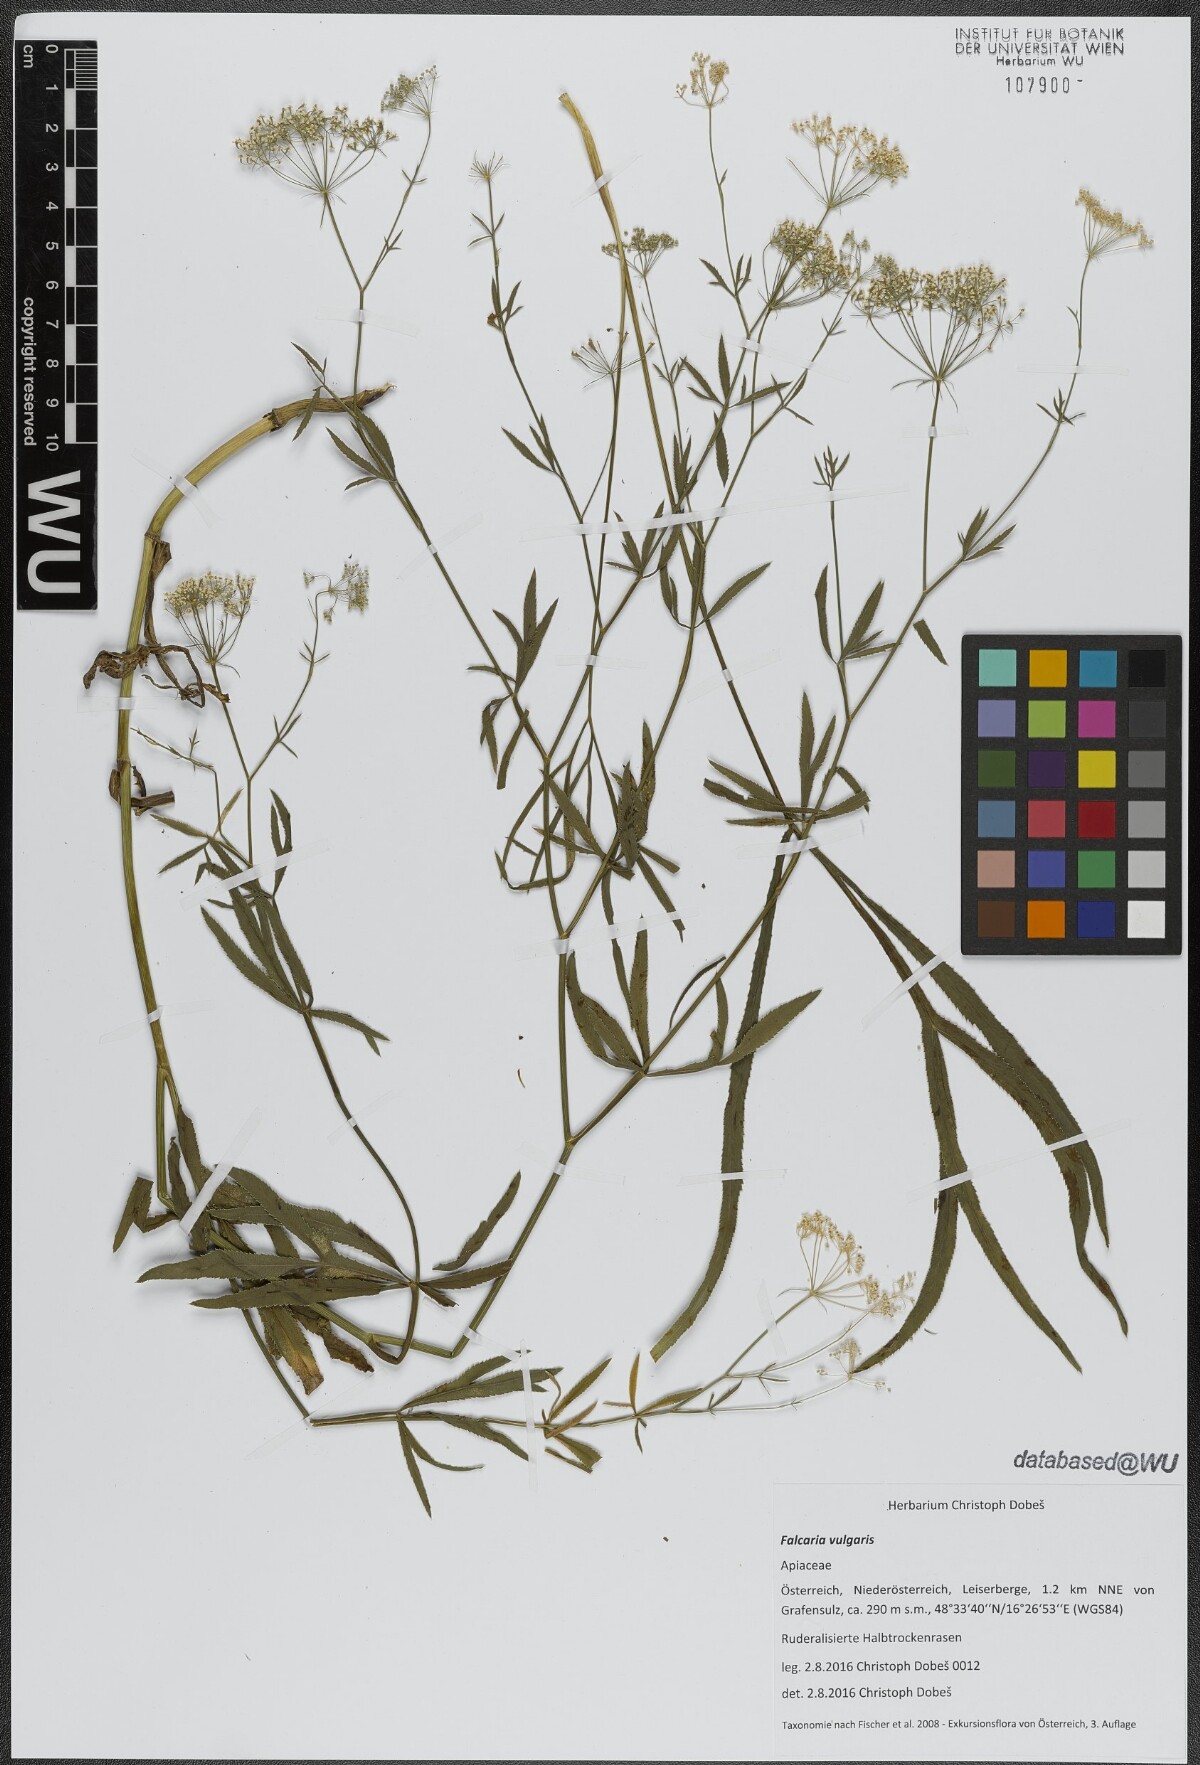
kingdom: Plantae
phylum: Tracheophyta
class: Magnoliopsida
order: Apiales
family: Apiaceae
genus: Falcaria
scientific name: Falcaria vulgaris
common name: Longleaf
